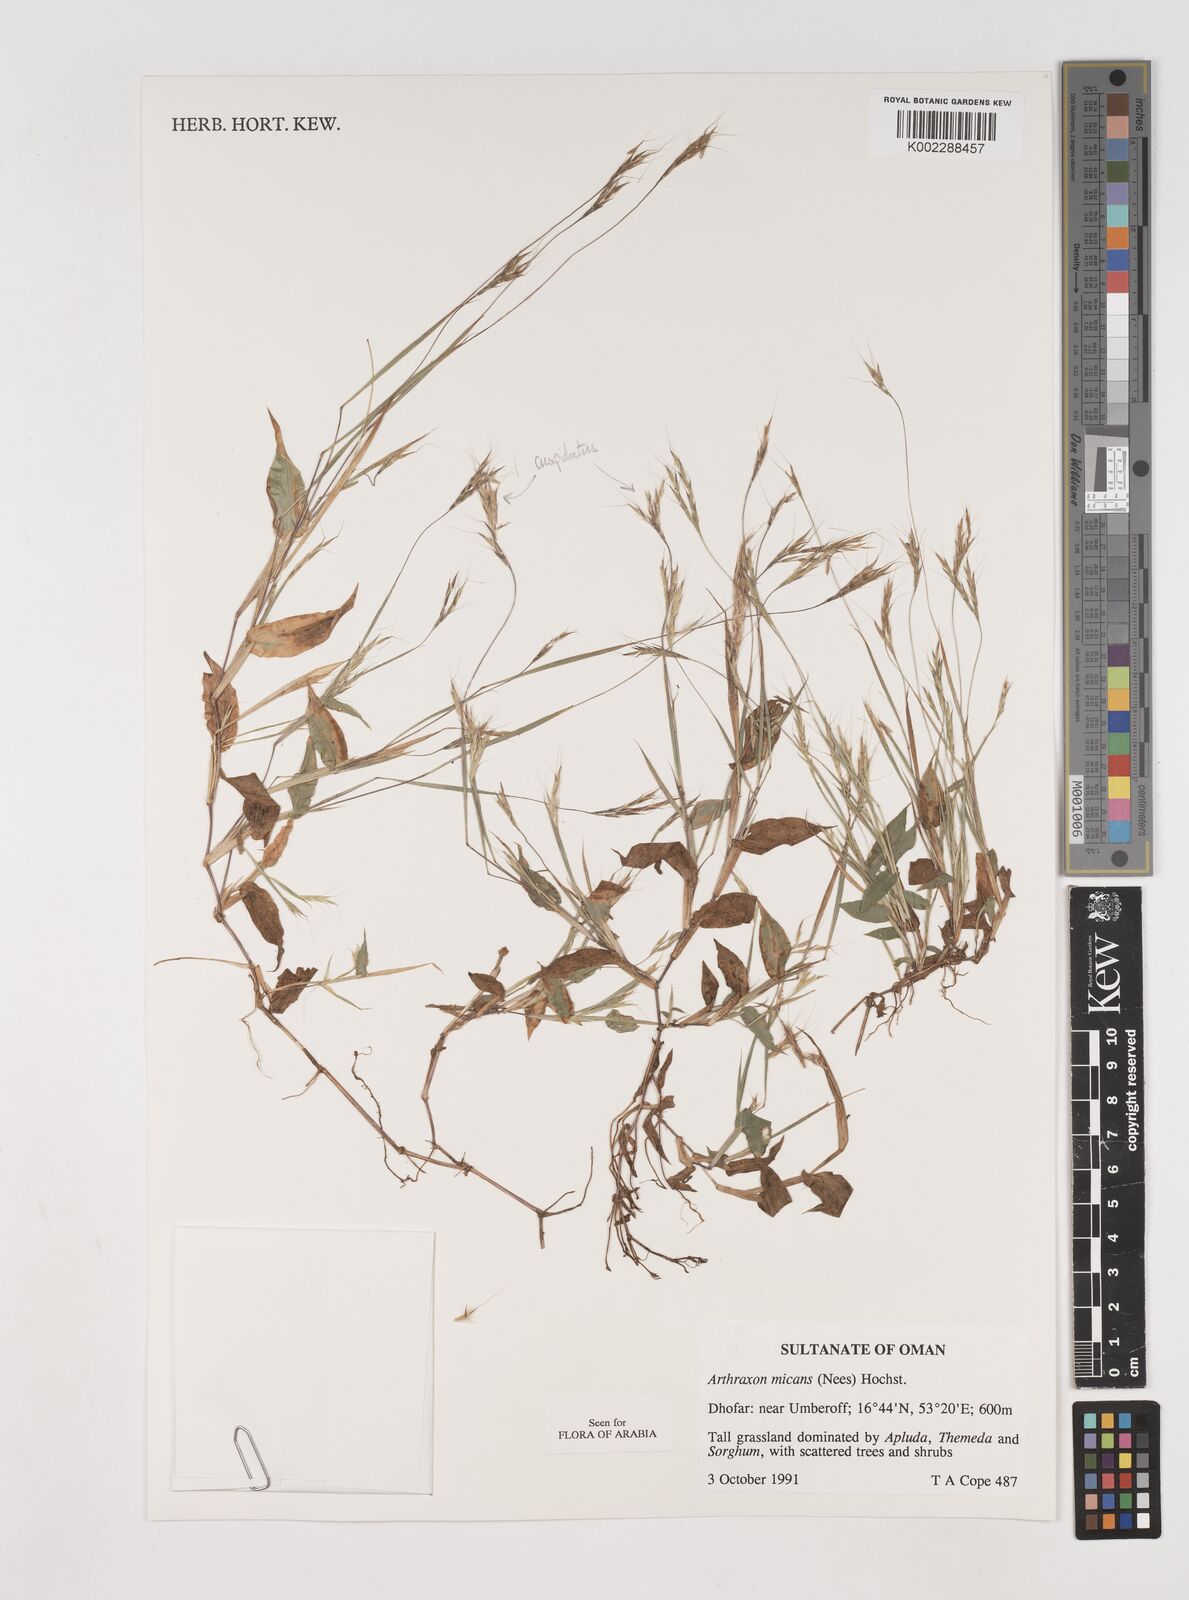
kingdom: Plantae
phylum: Tracheophyta
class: Liliopsida
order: Poales
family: Poaceae
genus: Arthraxon
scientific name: Arthraxon hispidus
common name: Small carpgrass
